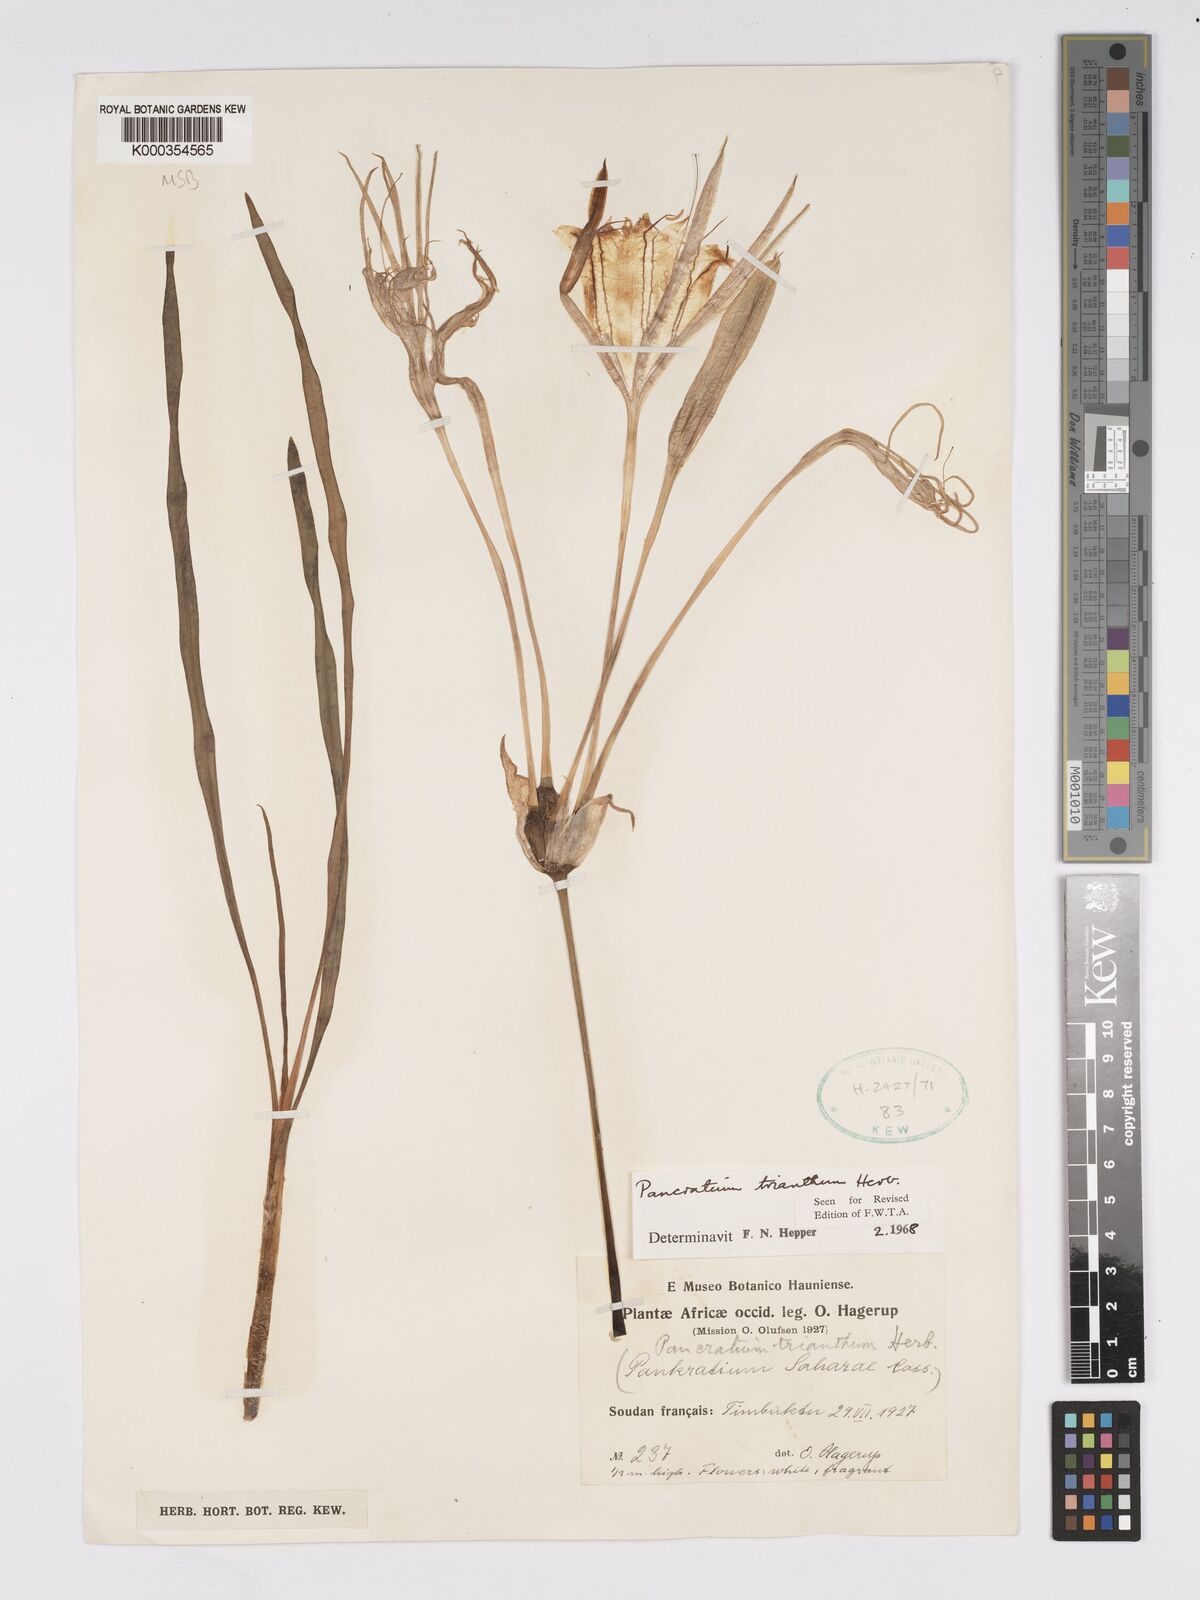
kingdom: Plantae
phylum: Tracheophyta
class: Liliopsida
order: Asparagales
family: Amaryllidaceae
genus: Pancratium
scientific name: Pancratium trianthum
